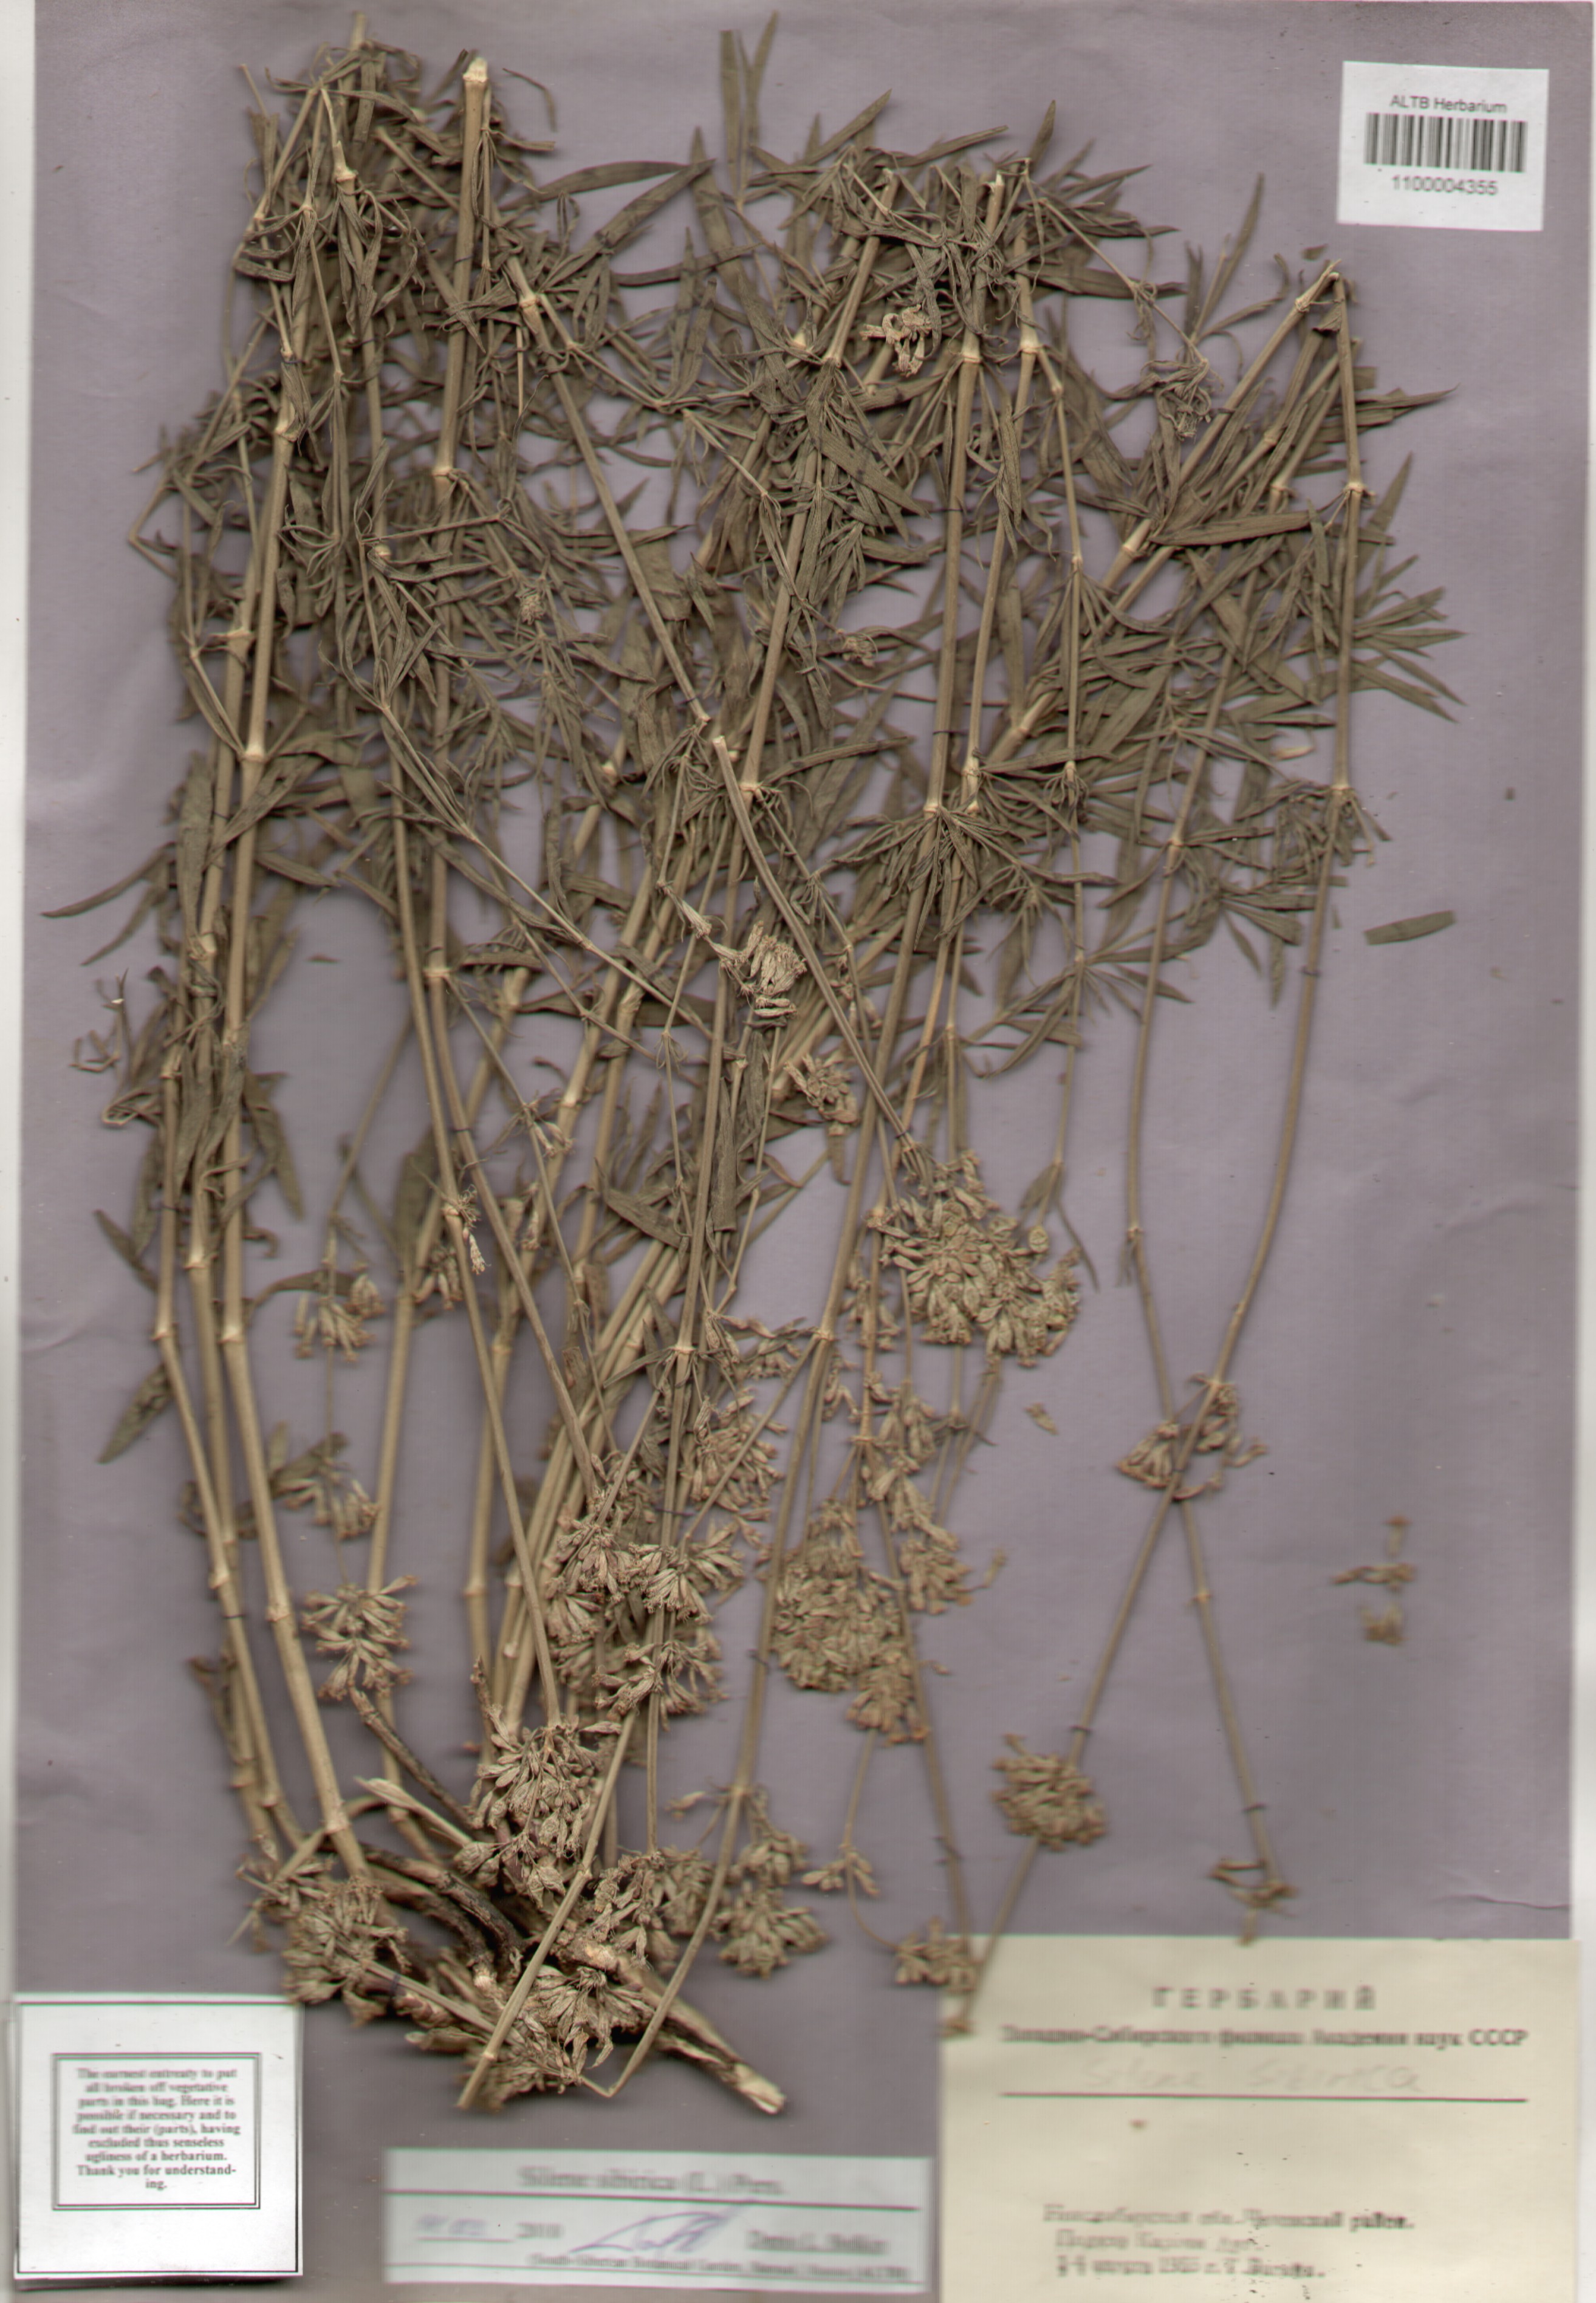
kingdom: Plantae
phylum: Tracheophyta
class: Magnoliopsida
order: Caryophyllales
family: Caryophyllaceae
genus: Silene
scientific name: Silene sibirica
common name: Siberian catchfly
